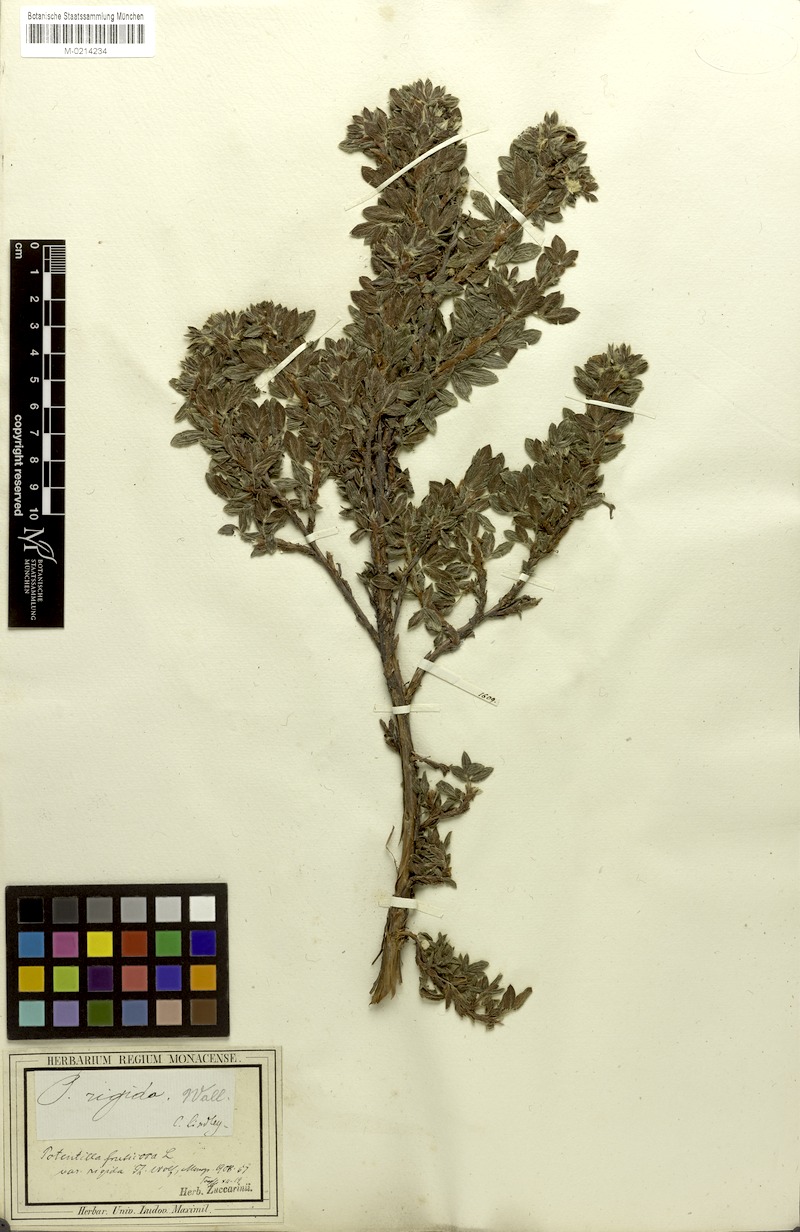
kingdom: Plantae
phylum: Tracheophyta
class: Magnoliopsida
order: Rosales
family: Rosaceae
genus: Dasiphora
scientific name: Dasiphora fruticosa
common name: Shrubby cinquefoil
